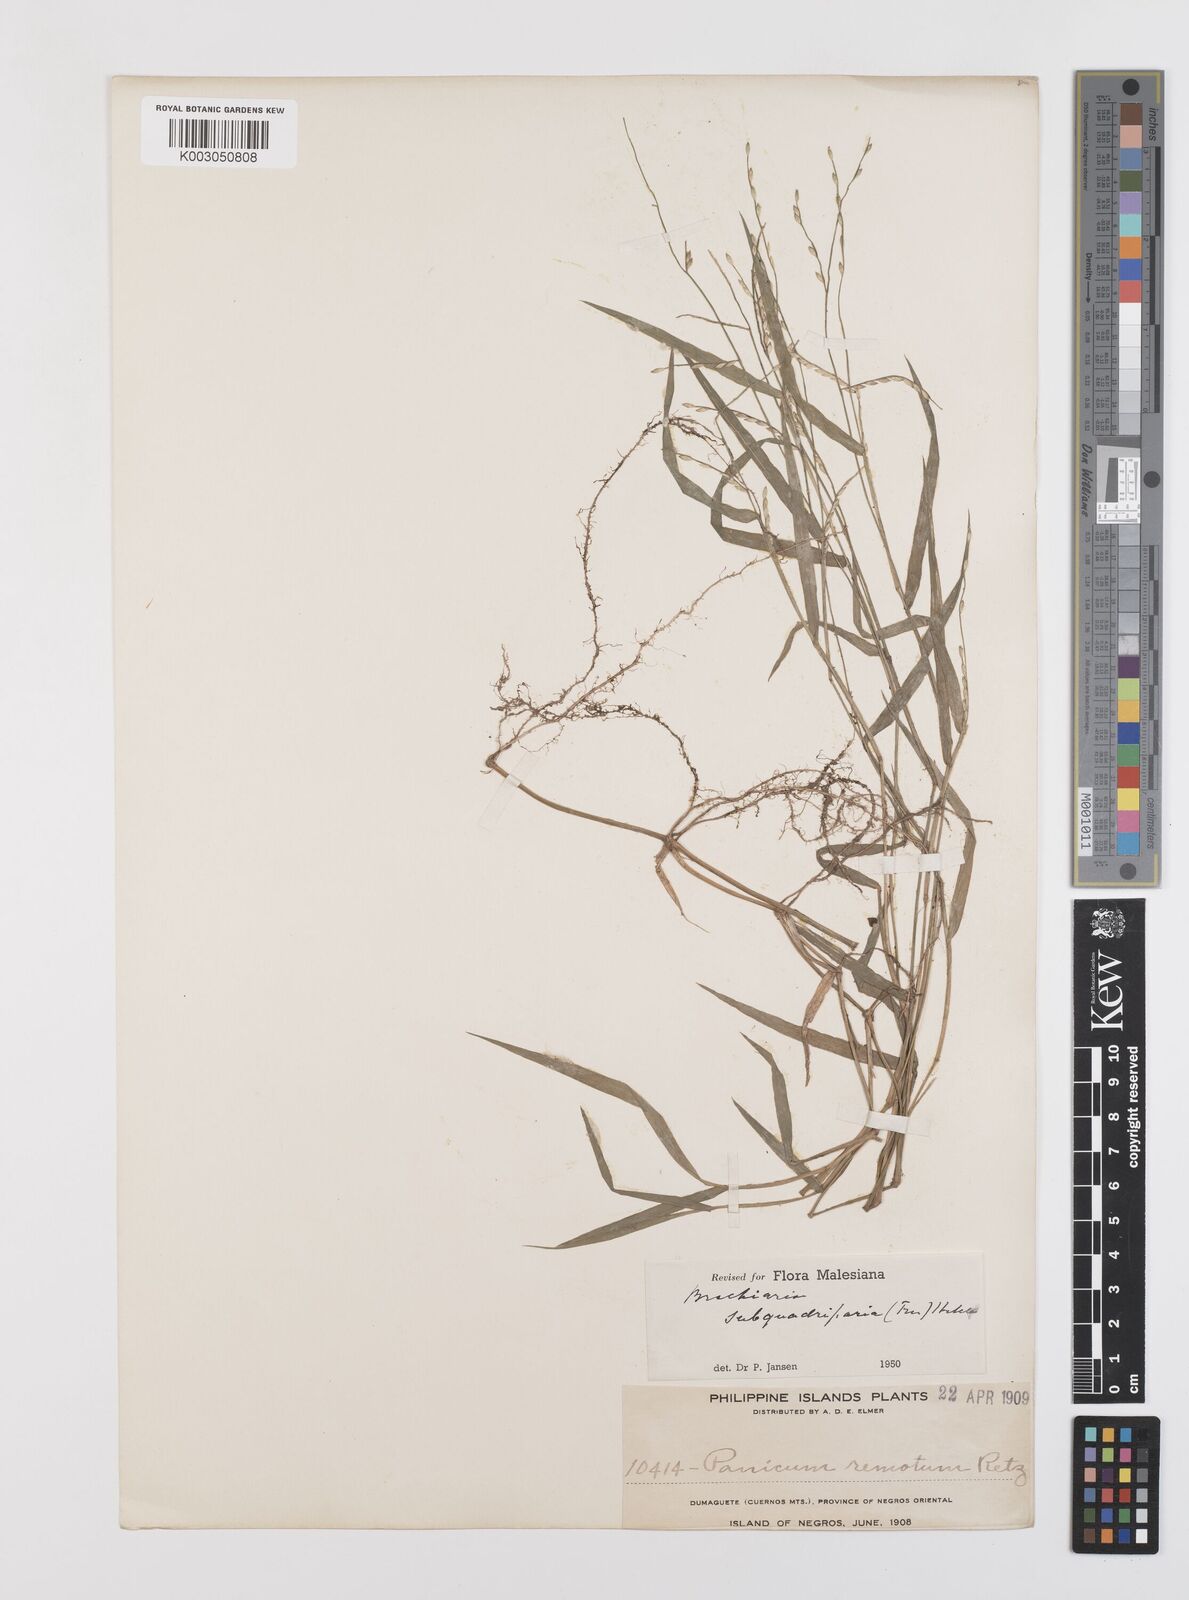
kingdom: Plantae
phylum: Tracheophyta
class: Liliopsida
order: Poales
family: Poaceae
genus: Urochloa
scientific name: Urochloa Brachiaria remota
